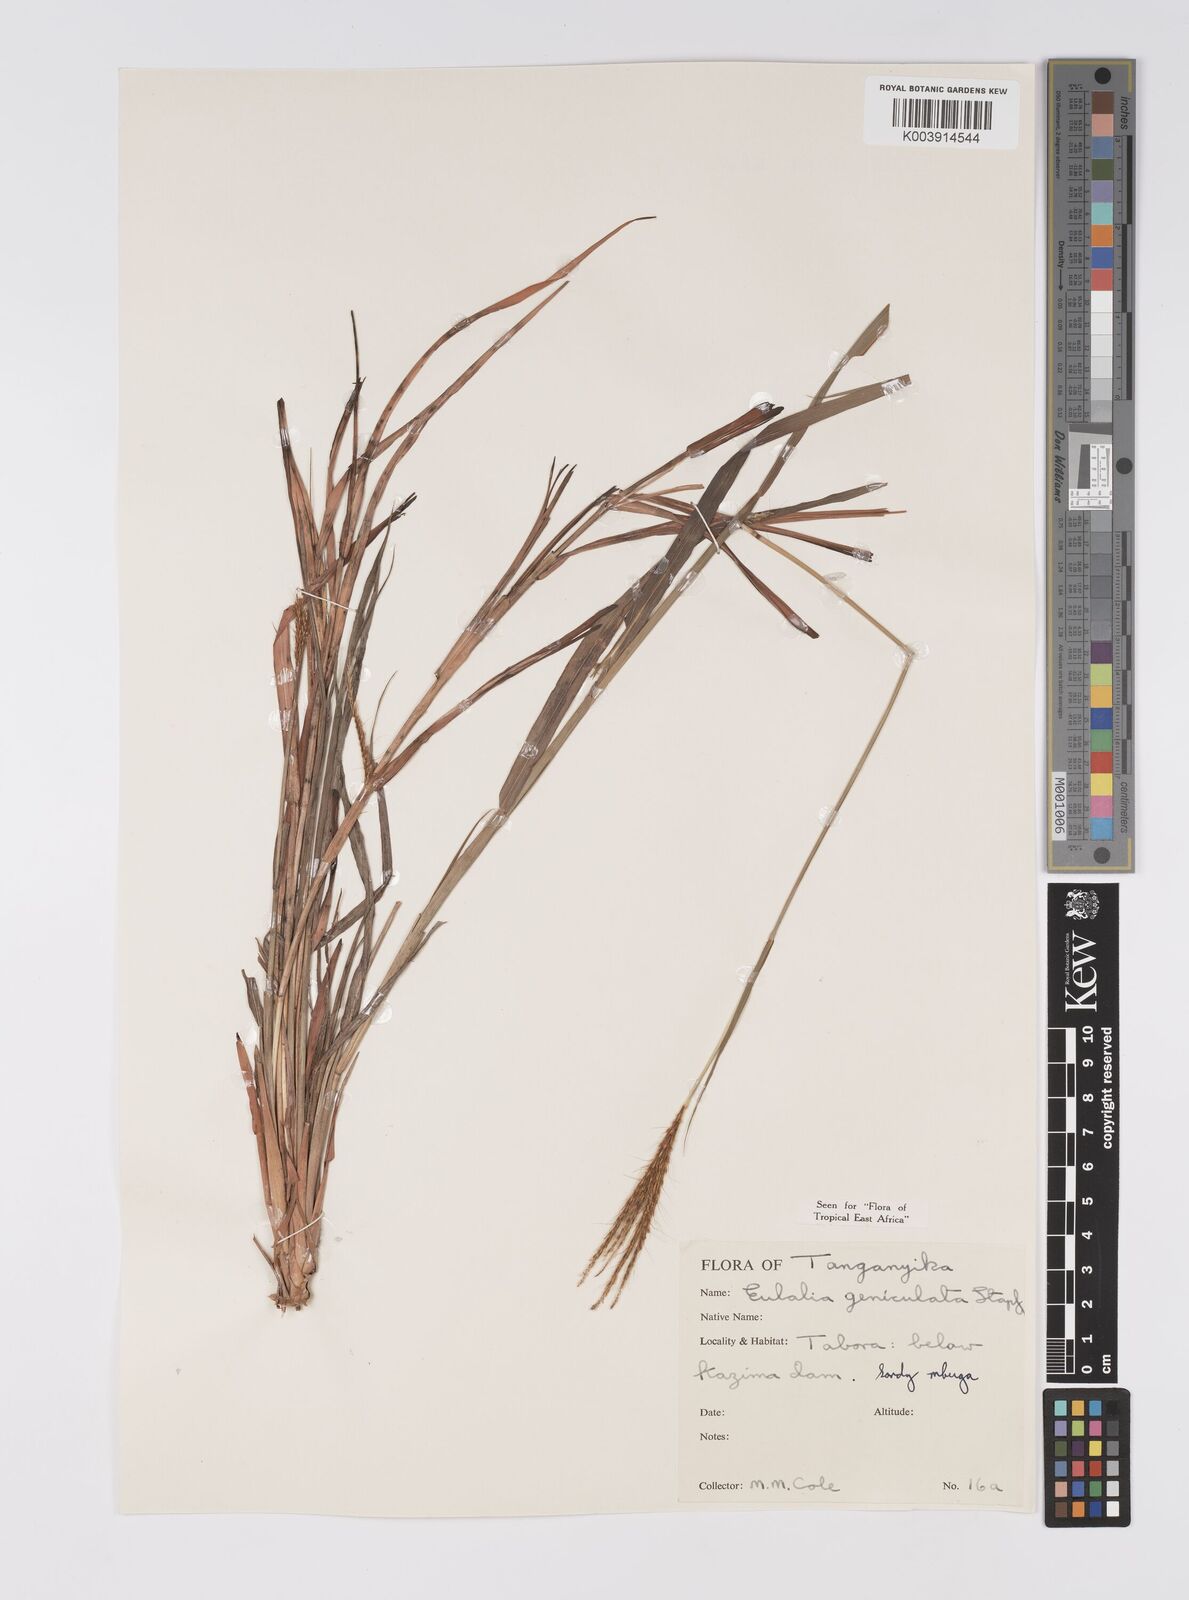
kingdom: Plantae
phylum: Tracheophyta
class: Liliopsida
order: Poales
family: Poaceae
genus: Eulalia
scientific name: Eulalia aurea
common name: Silky browntop
